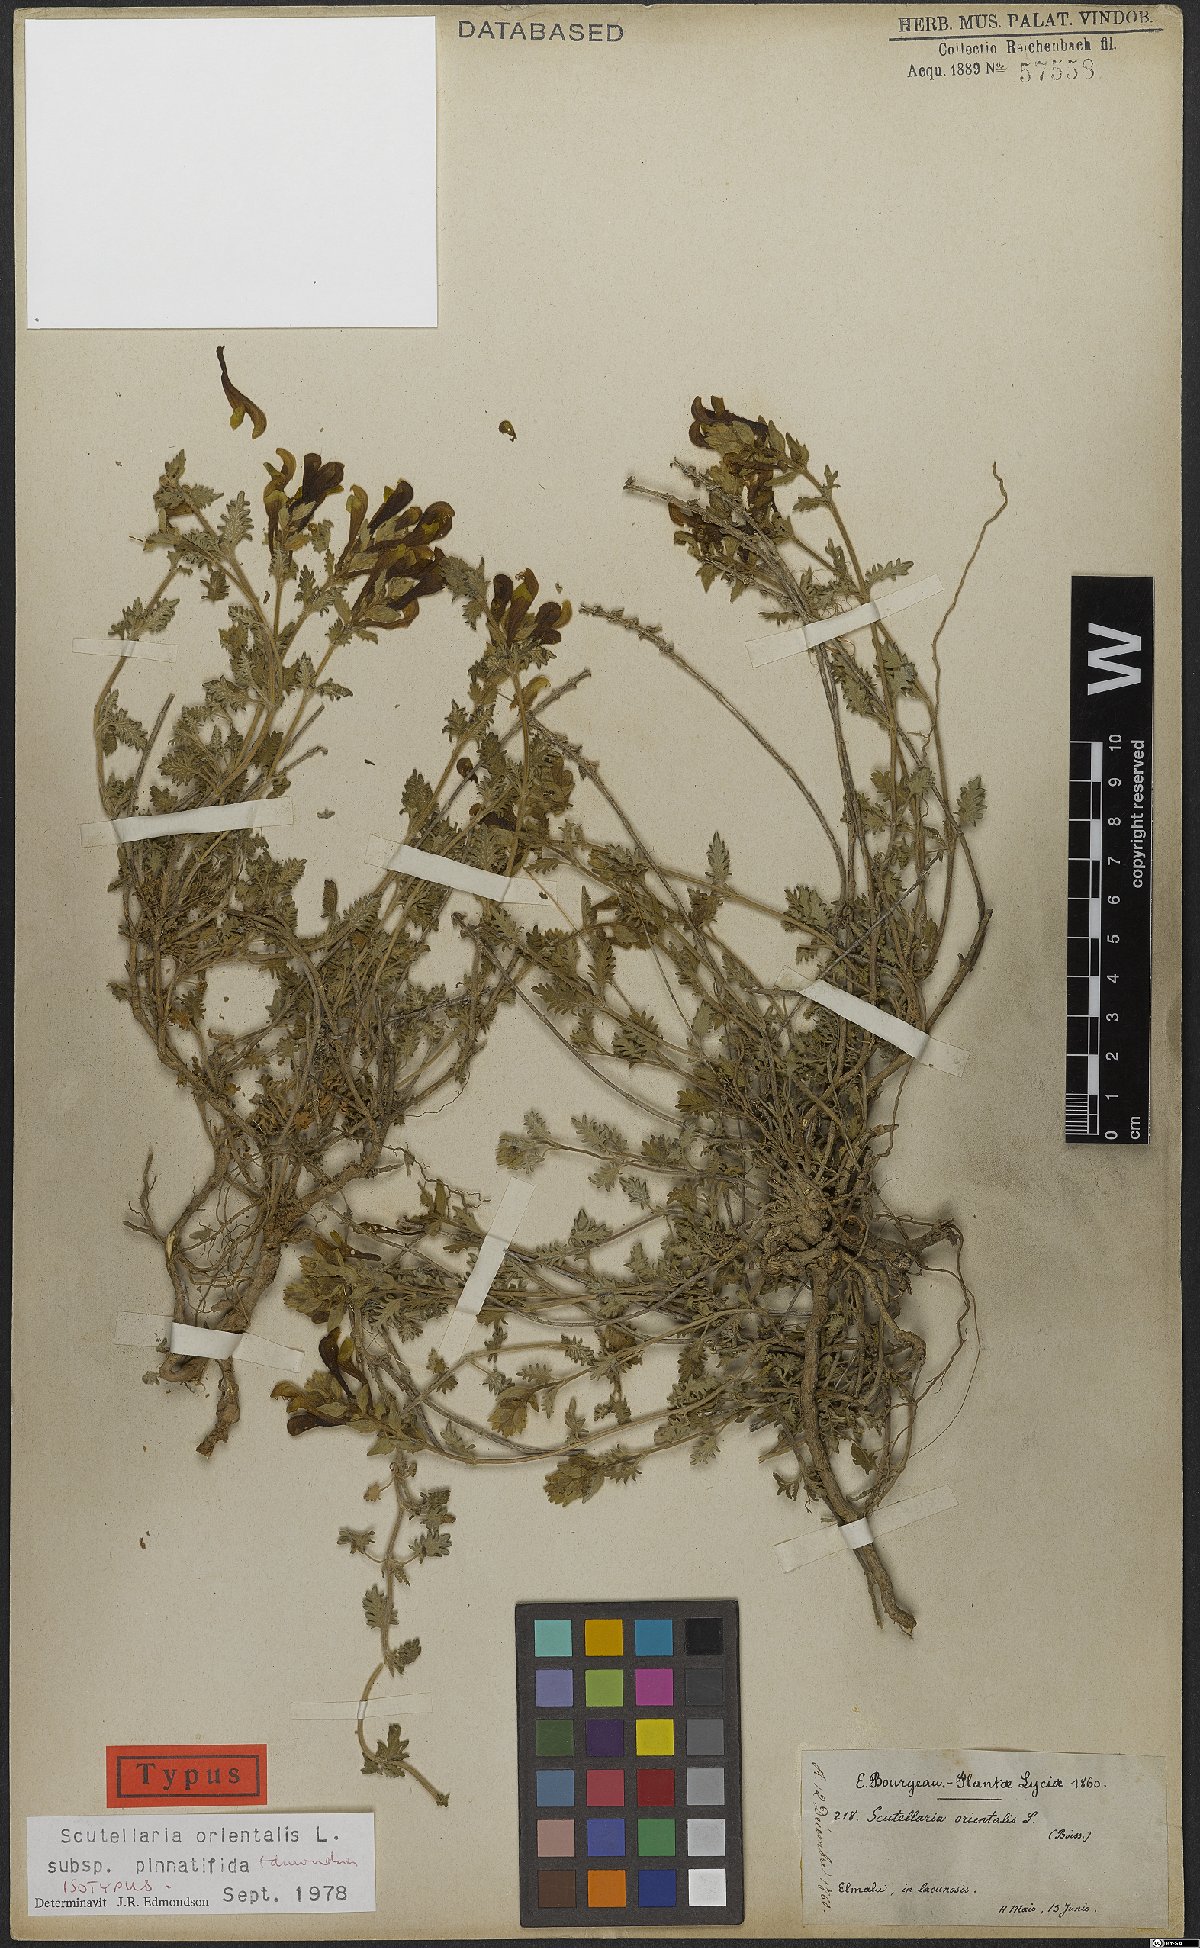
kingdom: Plantae
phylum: Tracheophyta
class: Magnoliopsida
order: Lamiales
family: Lamiaceae
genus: Scutellaria
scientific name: Scutellaria orientalis
